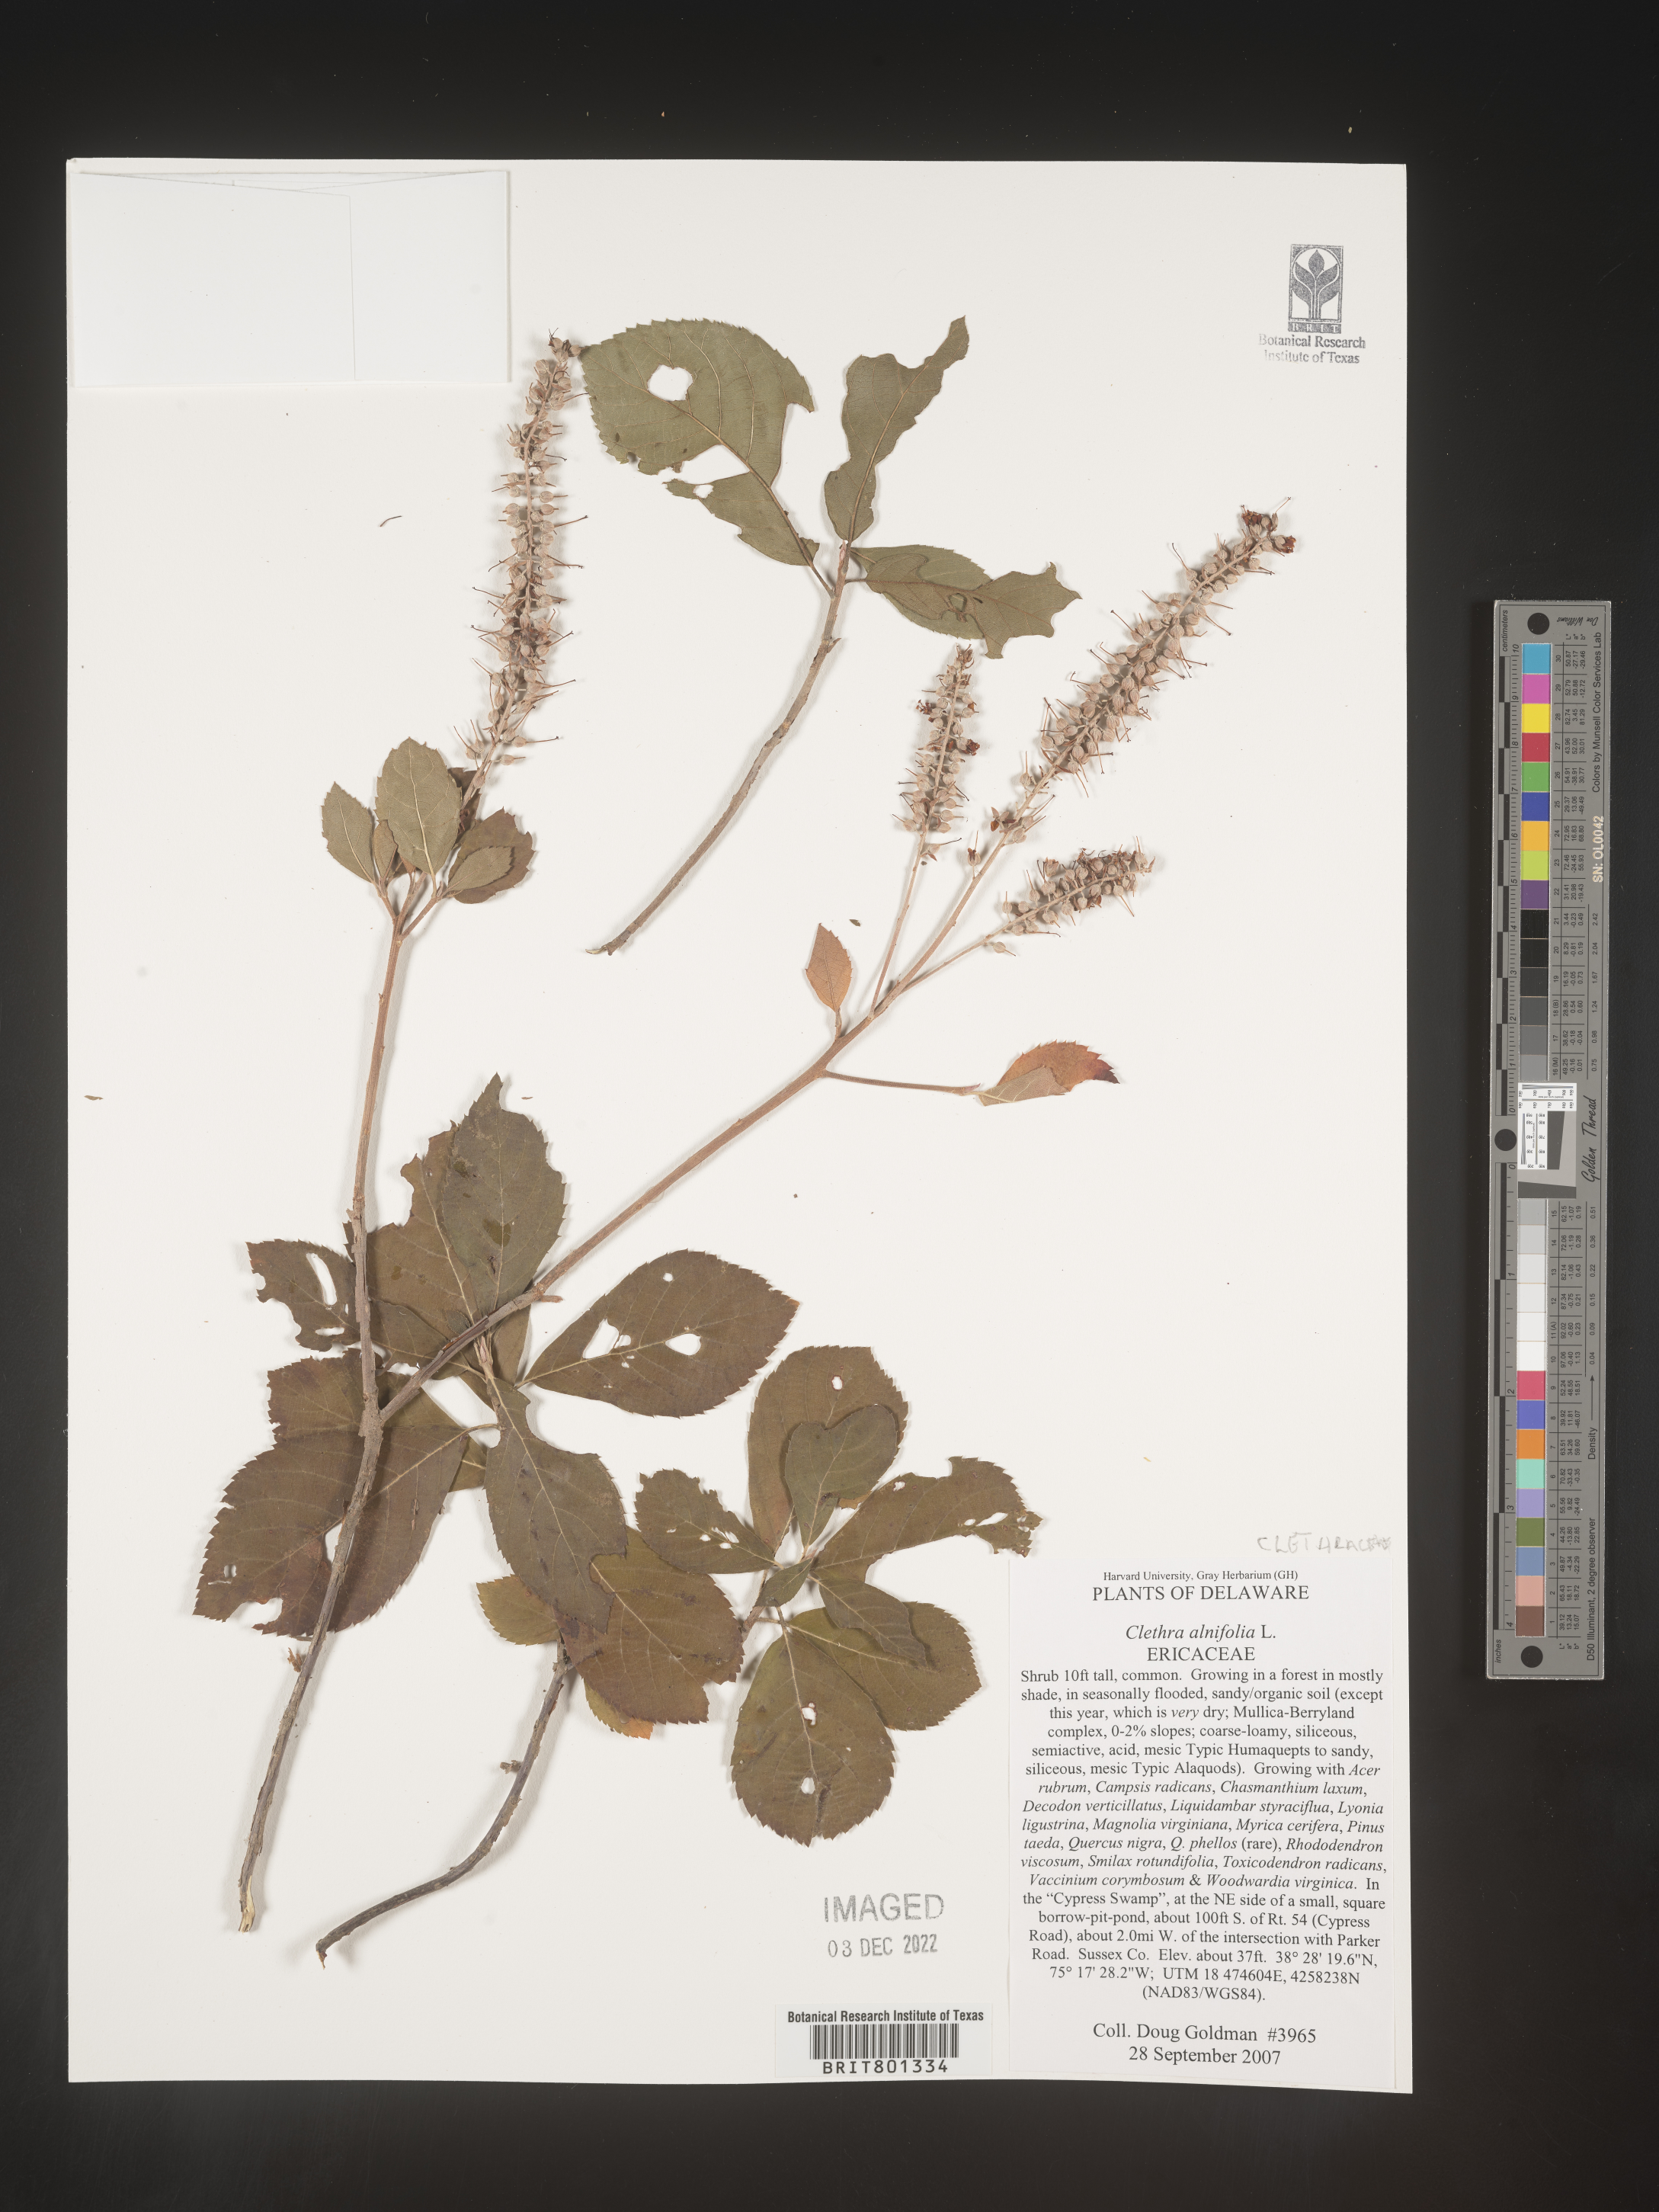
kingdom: Plantae
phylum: Tracheophyta
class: Magnoliopsida
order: Ericales
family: Clethraceae
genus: Clethra
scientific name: Clethra alnifolia
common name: Sweet pepperbush
